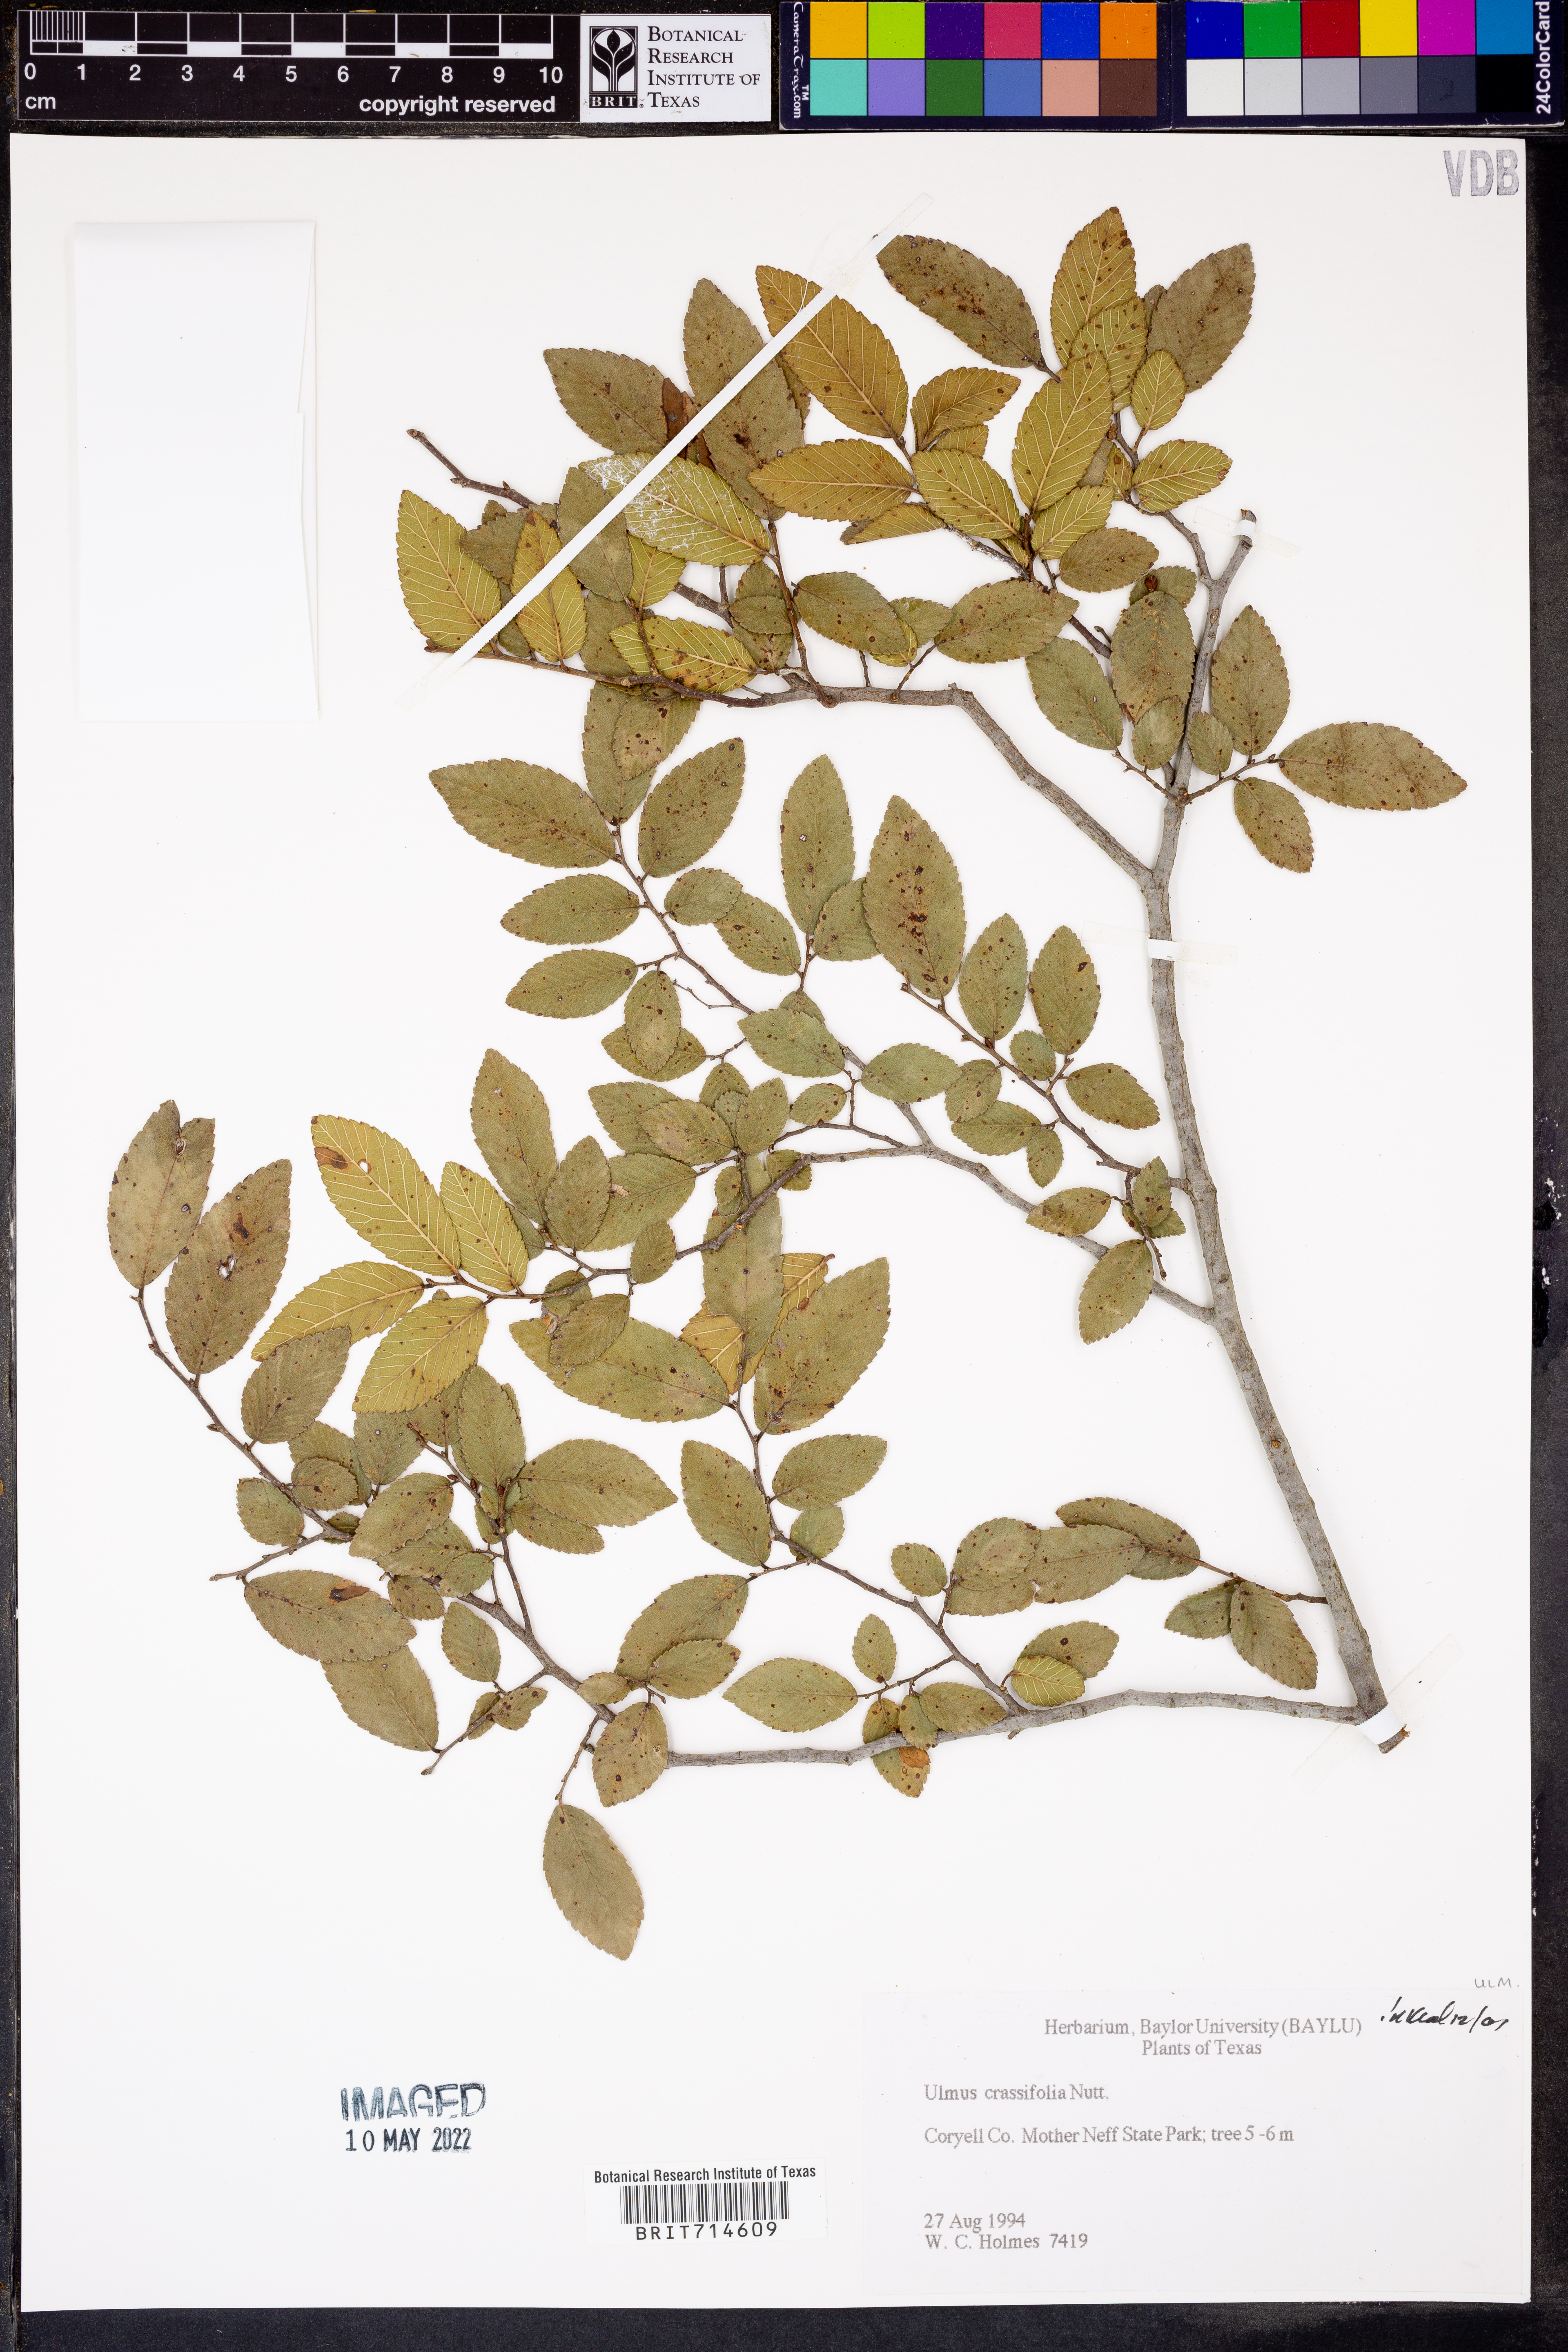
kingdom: Plantae
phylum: Tracheophyta
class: Magnoliopsida
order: Rosales
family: Ulmaceae
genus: Ulmus
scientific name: Ulmus crassifolia
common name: Basket elm
